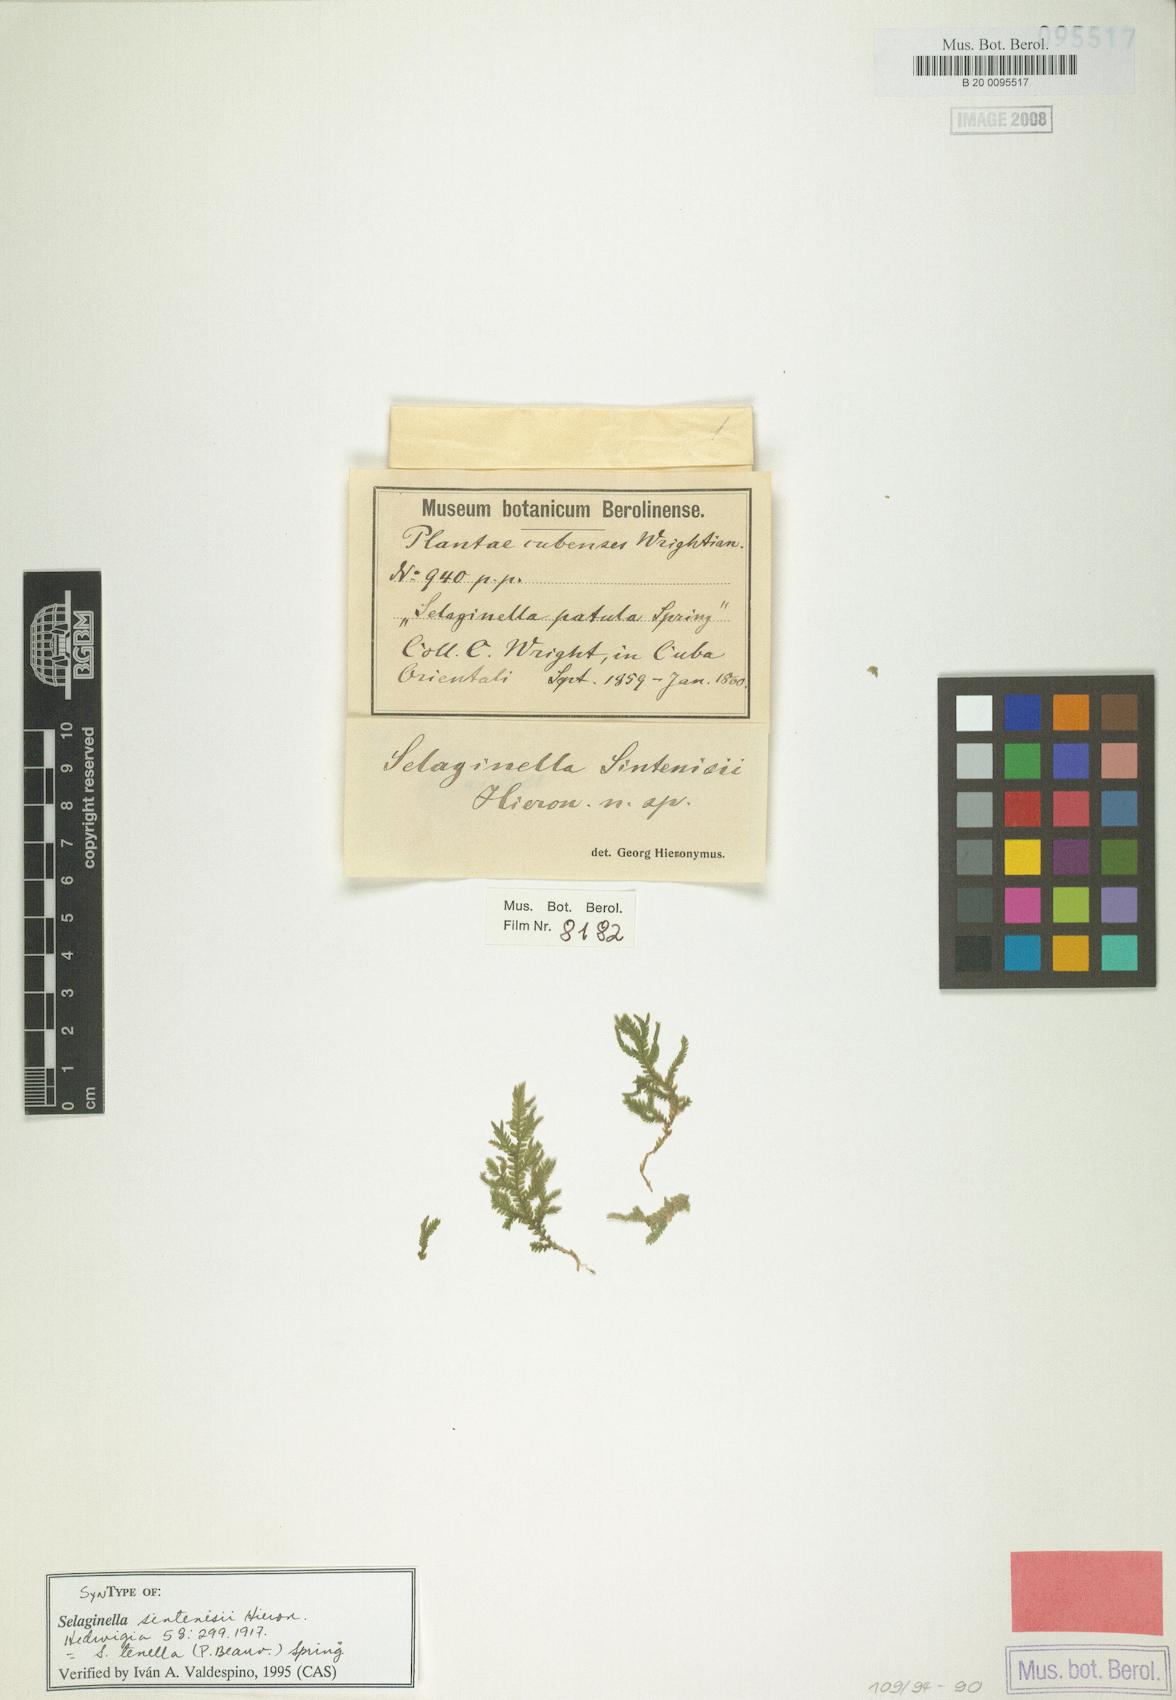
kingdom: Plantae
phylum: Tracheophyta
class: Lycopodiopsida
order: Selaginellales
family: Selaginellaceae
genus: Selaginella
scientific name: Selaginella tenella
